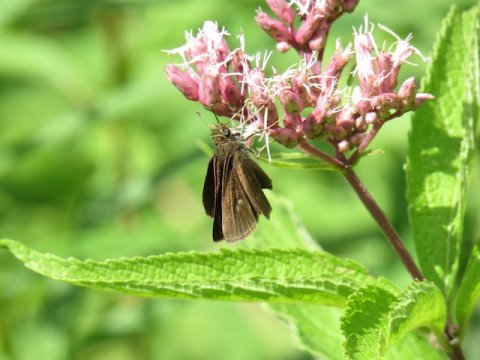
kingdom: Animalia
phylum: Arthropoda
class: Insecta
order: Lepidoptera
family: Hesperiidae
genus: Euphyes
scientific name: Euphyes vestris
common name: Dun Skipper
